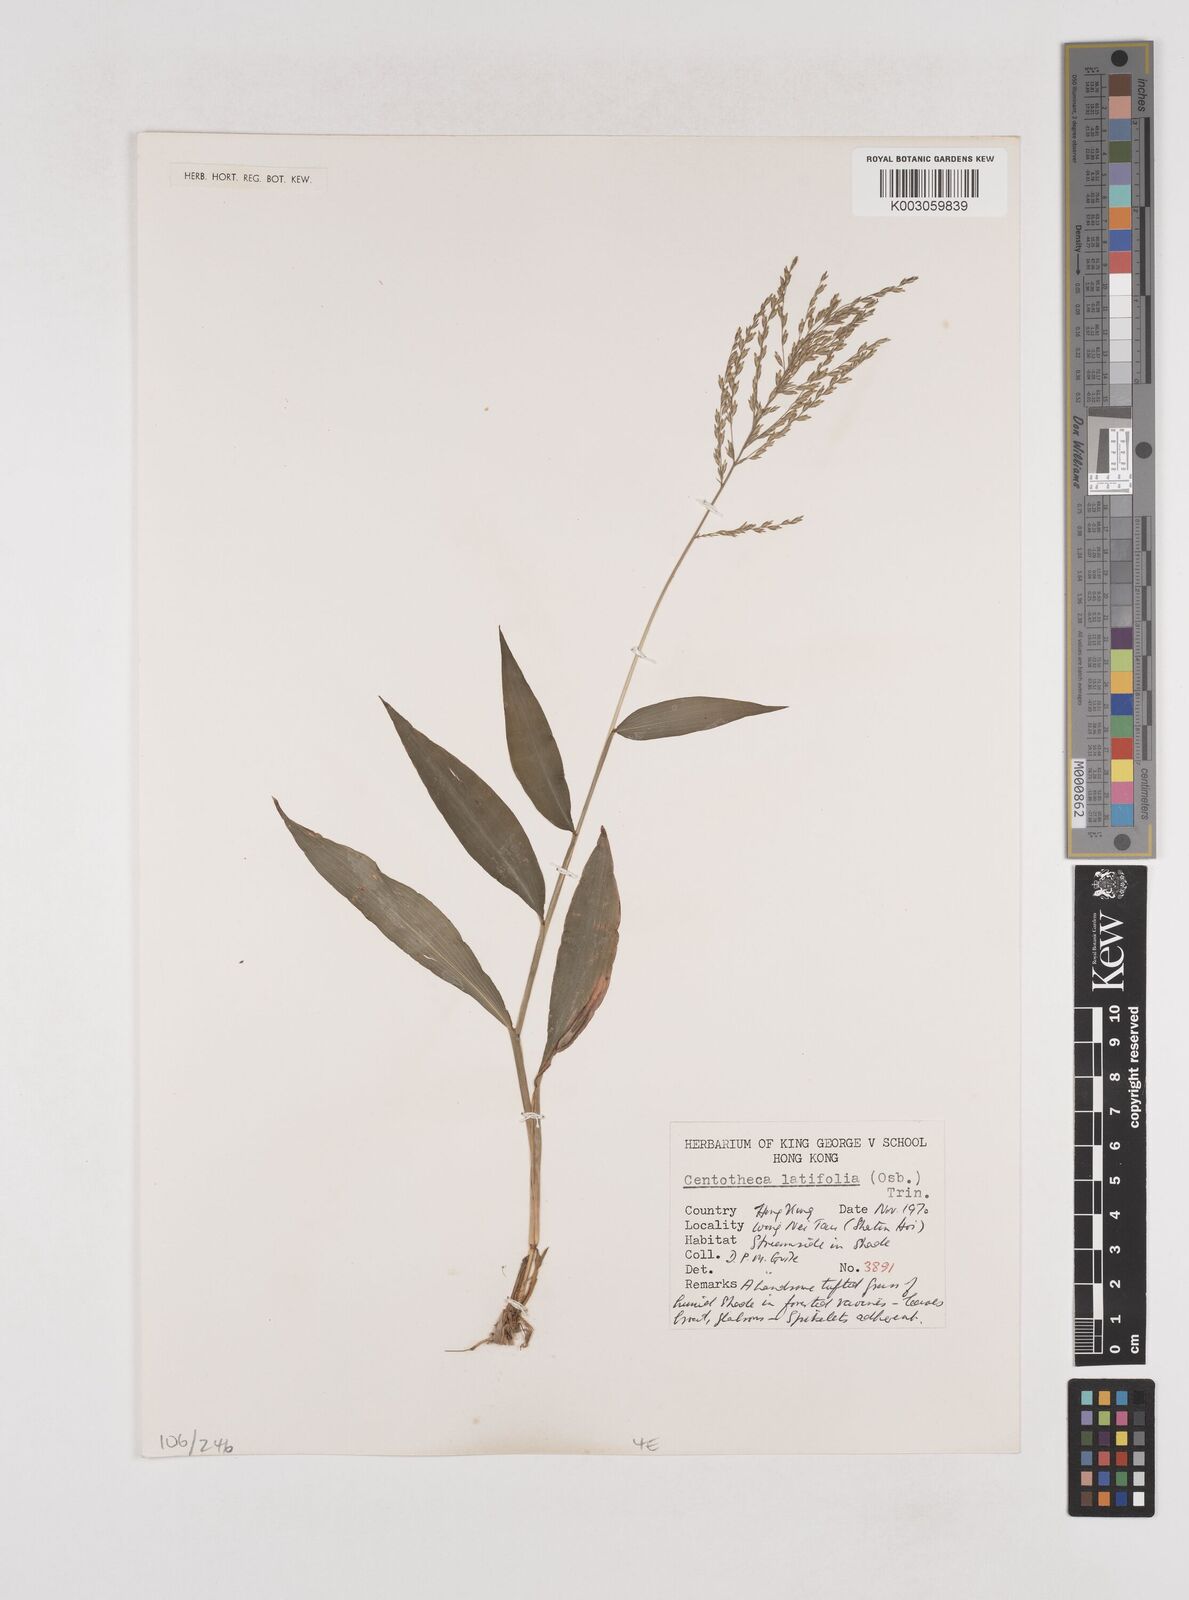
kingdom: Plantae
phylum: Tracheophyta
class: Liliopsida
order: Poales
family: Poaceae
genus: Centotheca
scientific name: Centotheca lappacea
